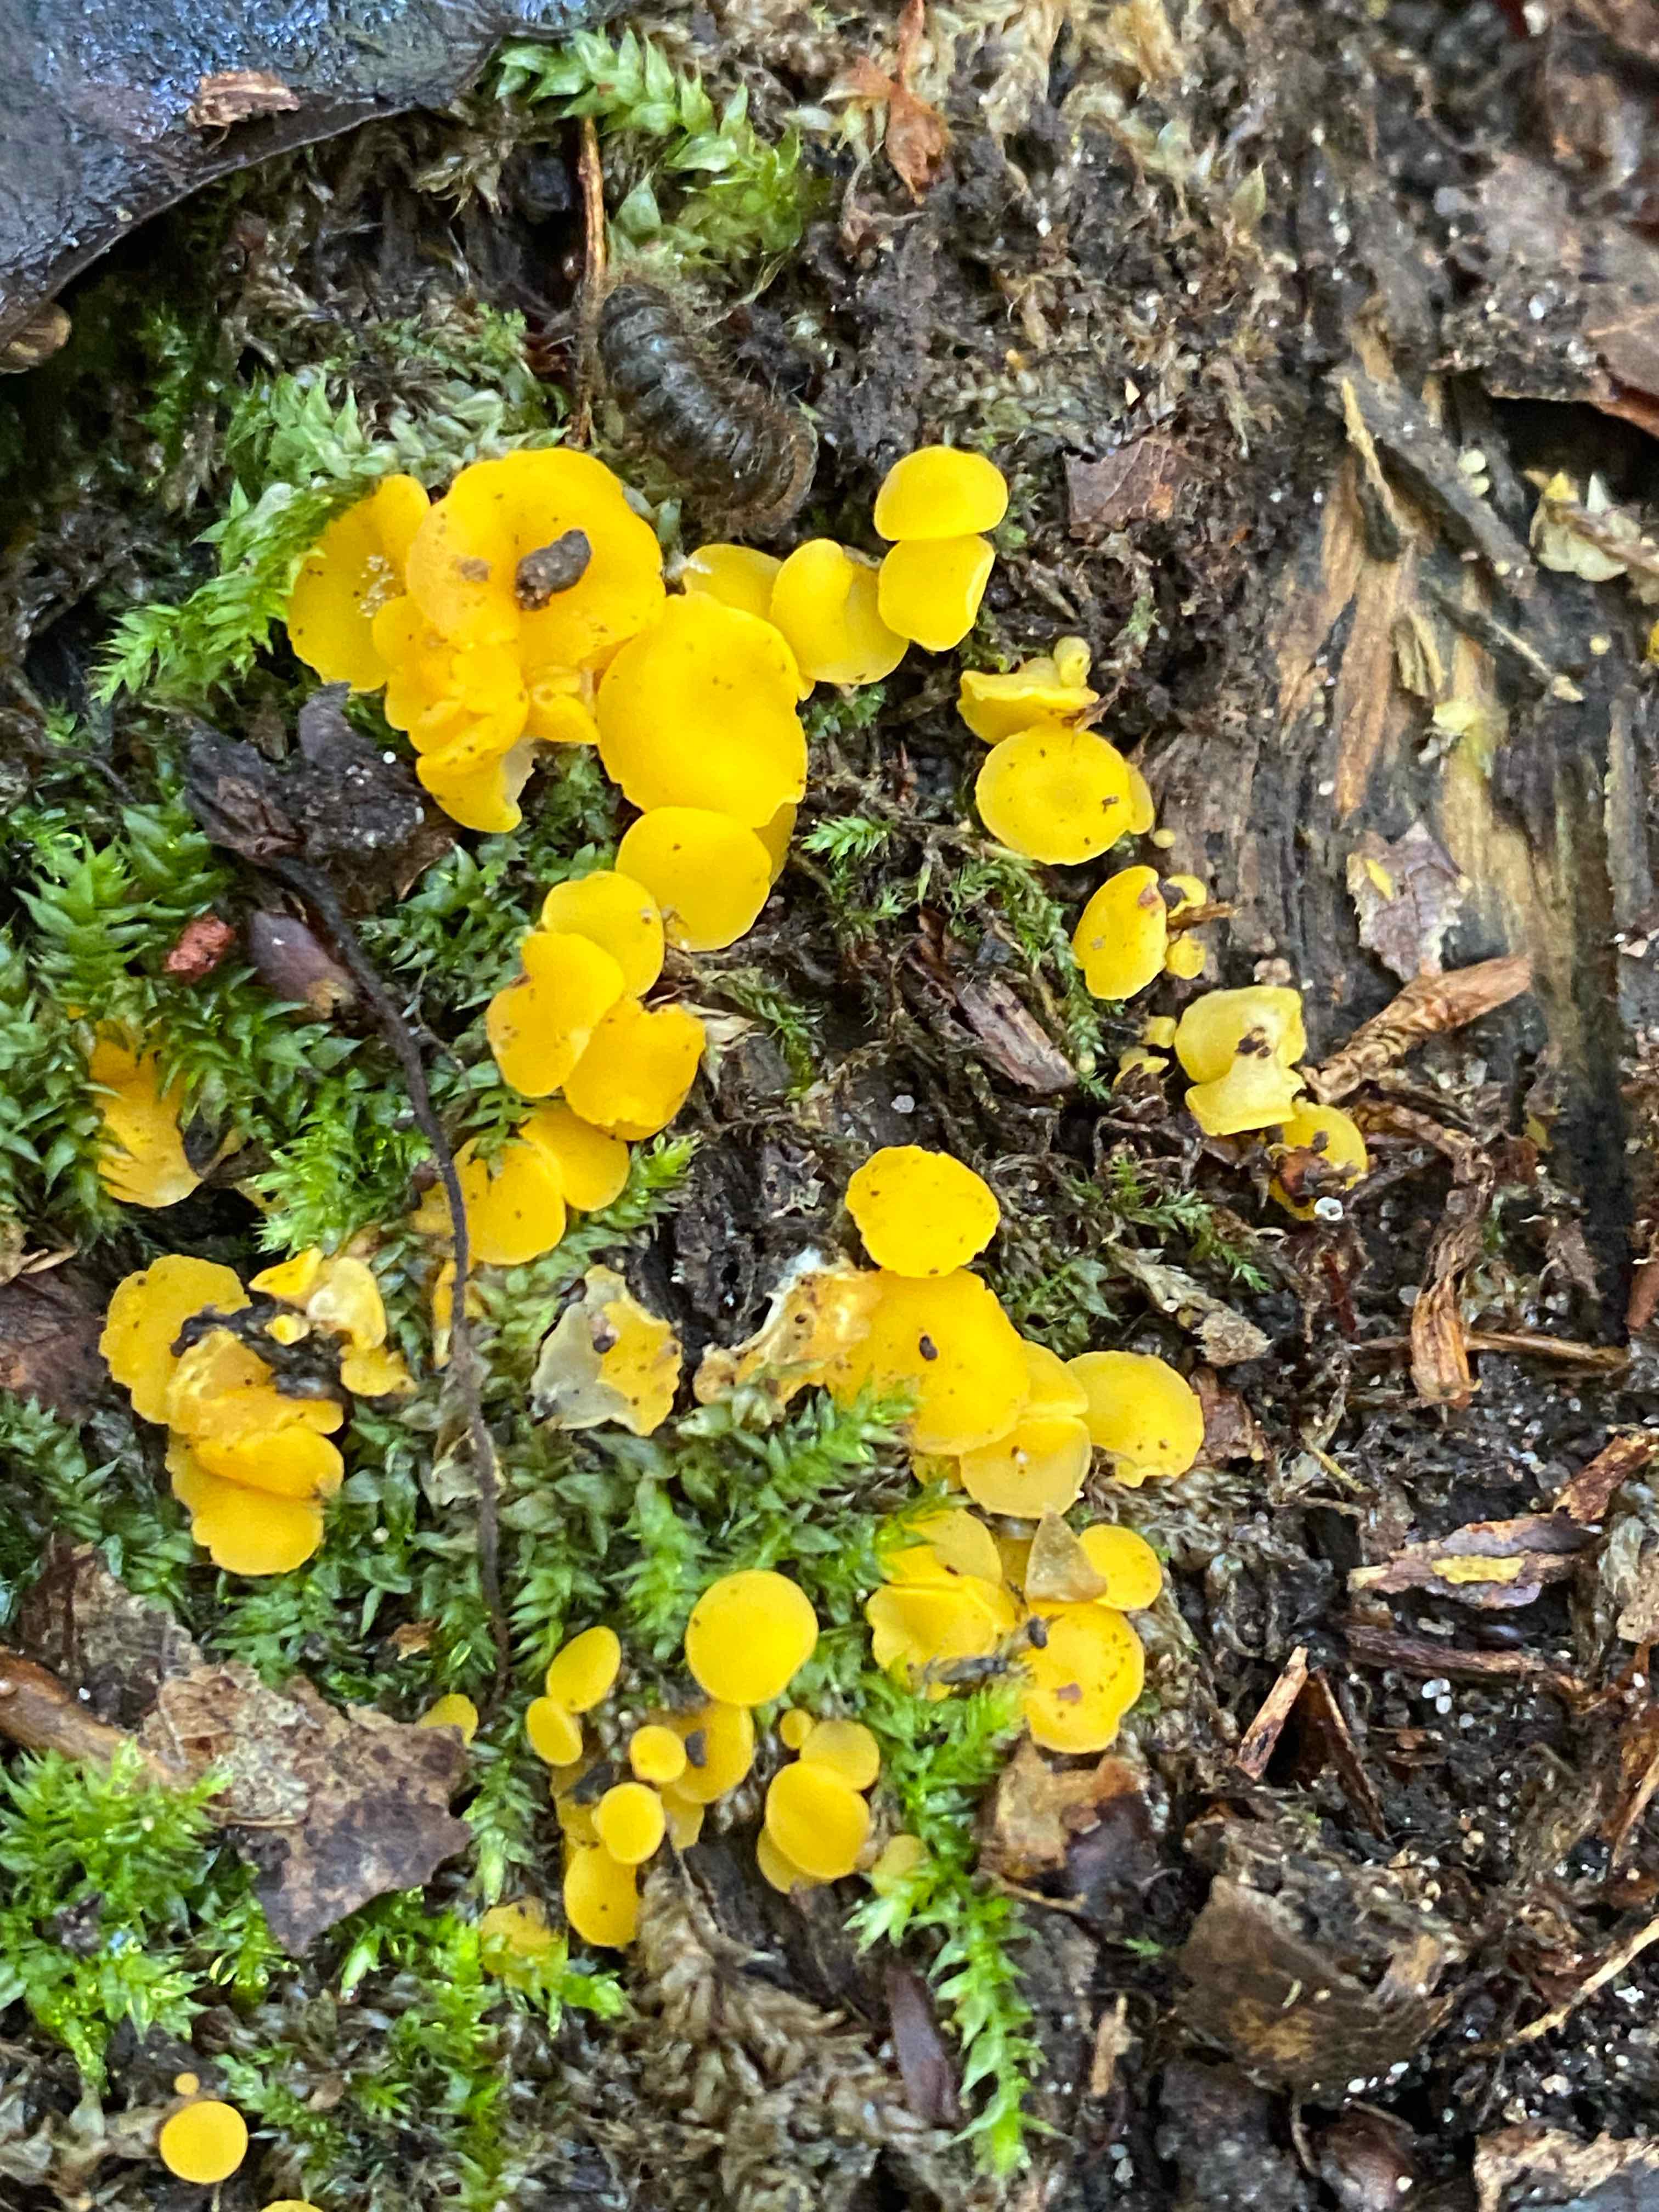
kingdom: Fungi
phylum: Ascomycota
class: Leotiomycetes
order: Helotiales
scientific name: Helotiales
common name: stilkskiveordenen
